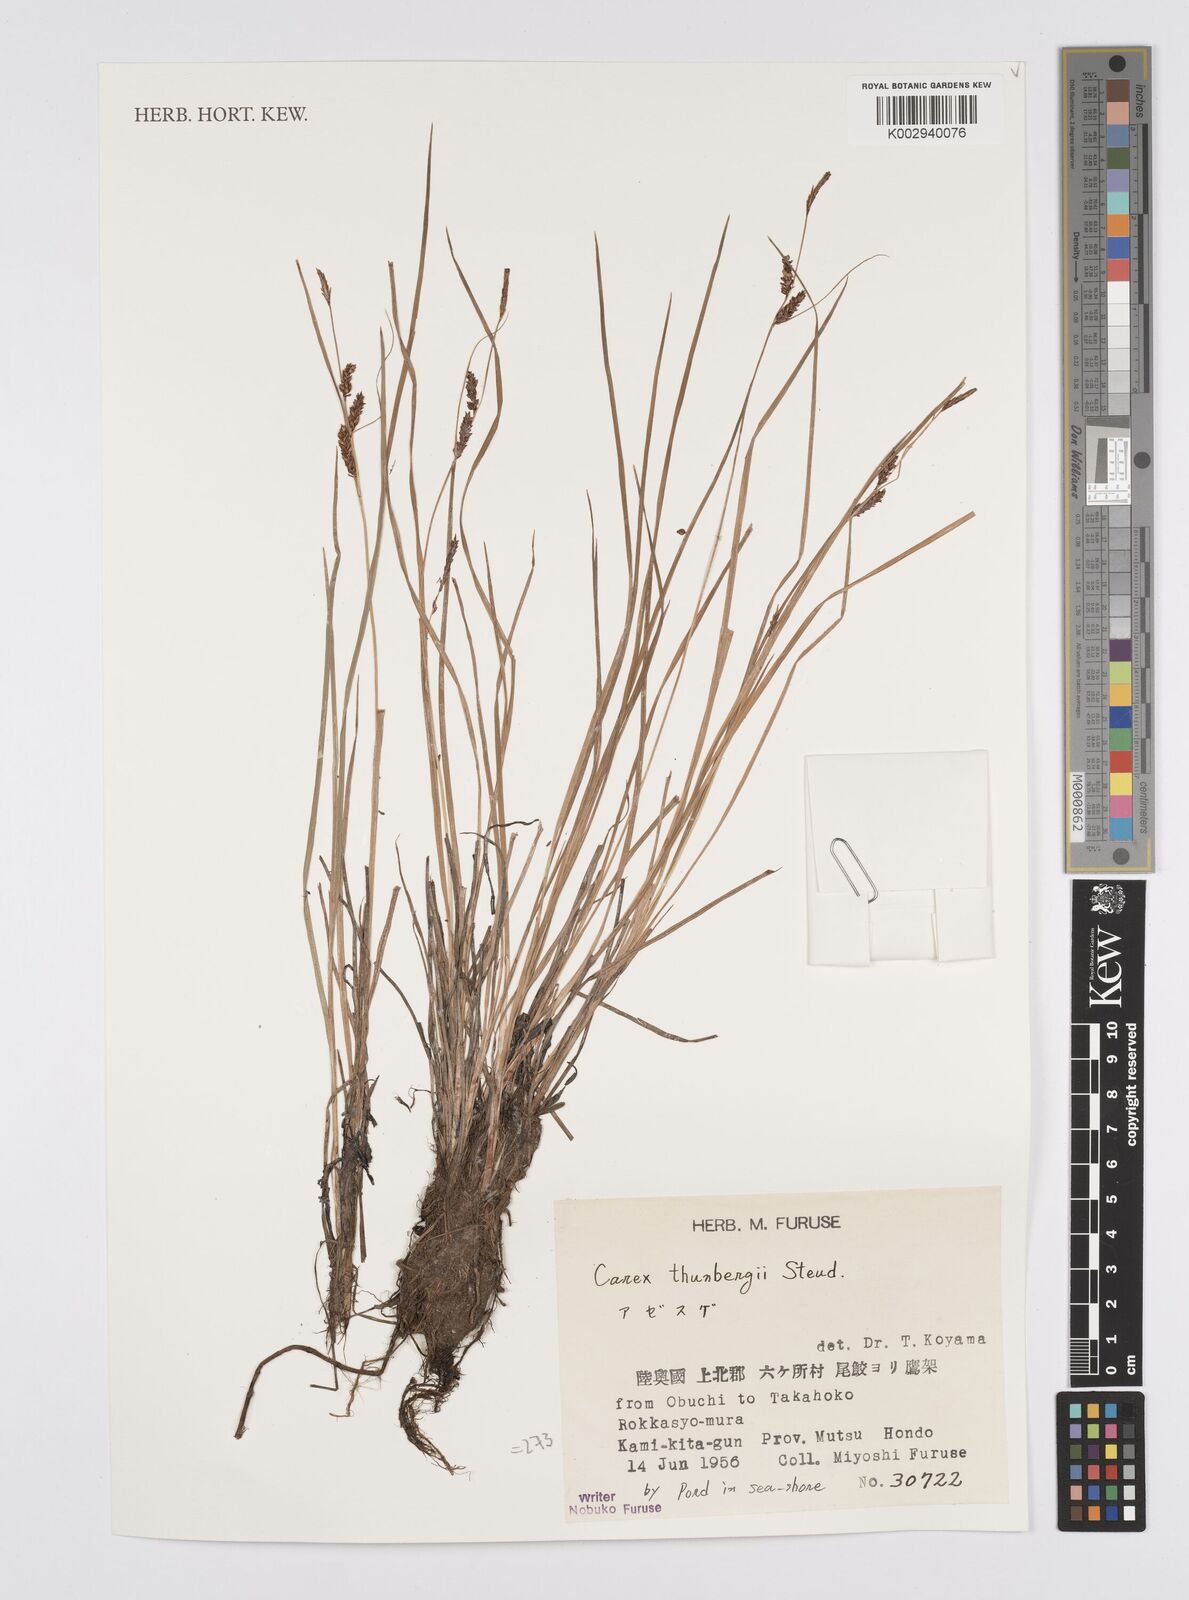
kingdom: Plantae
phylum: Tracheophyta
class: Liliopsida
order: Poales
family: Cyperaceae
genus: Carex
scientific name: Carex thunbergii
